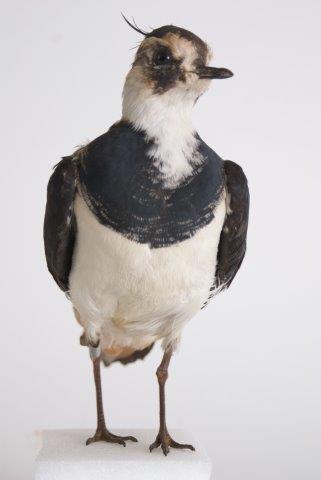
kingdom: Animalia
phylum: Chordata
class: Aves
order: Charadriiformes
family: Charadriidae
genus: Vanellus
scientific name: Vanellus vanellus
